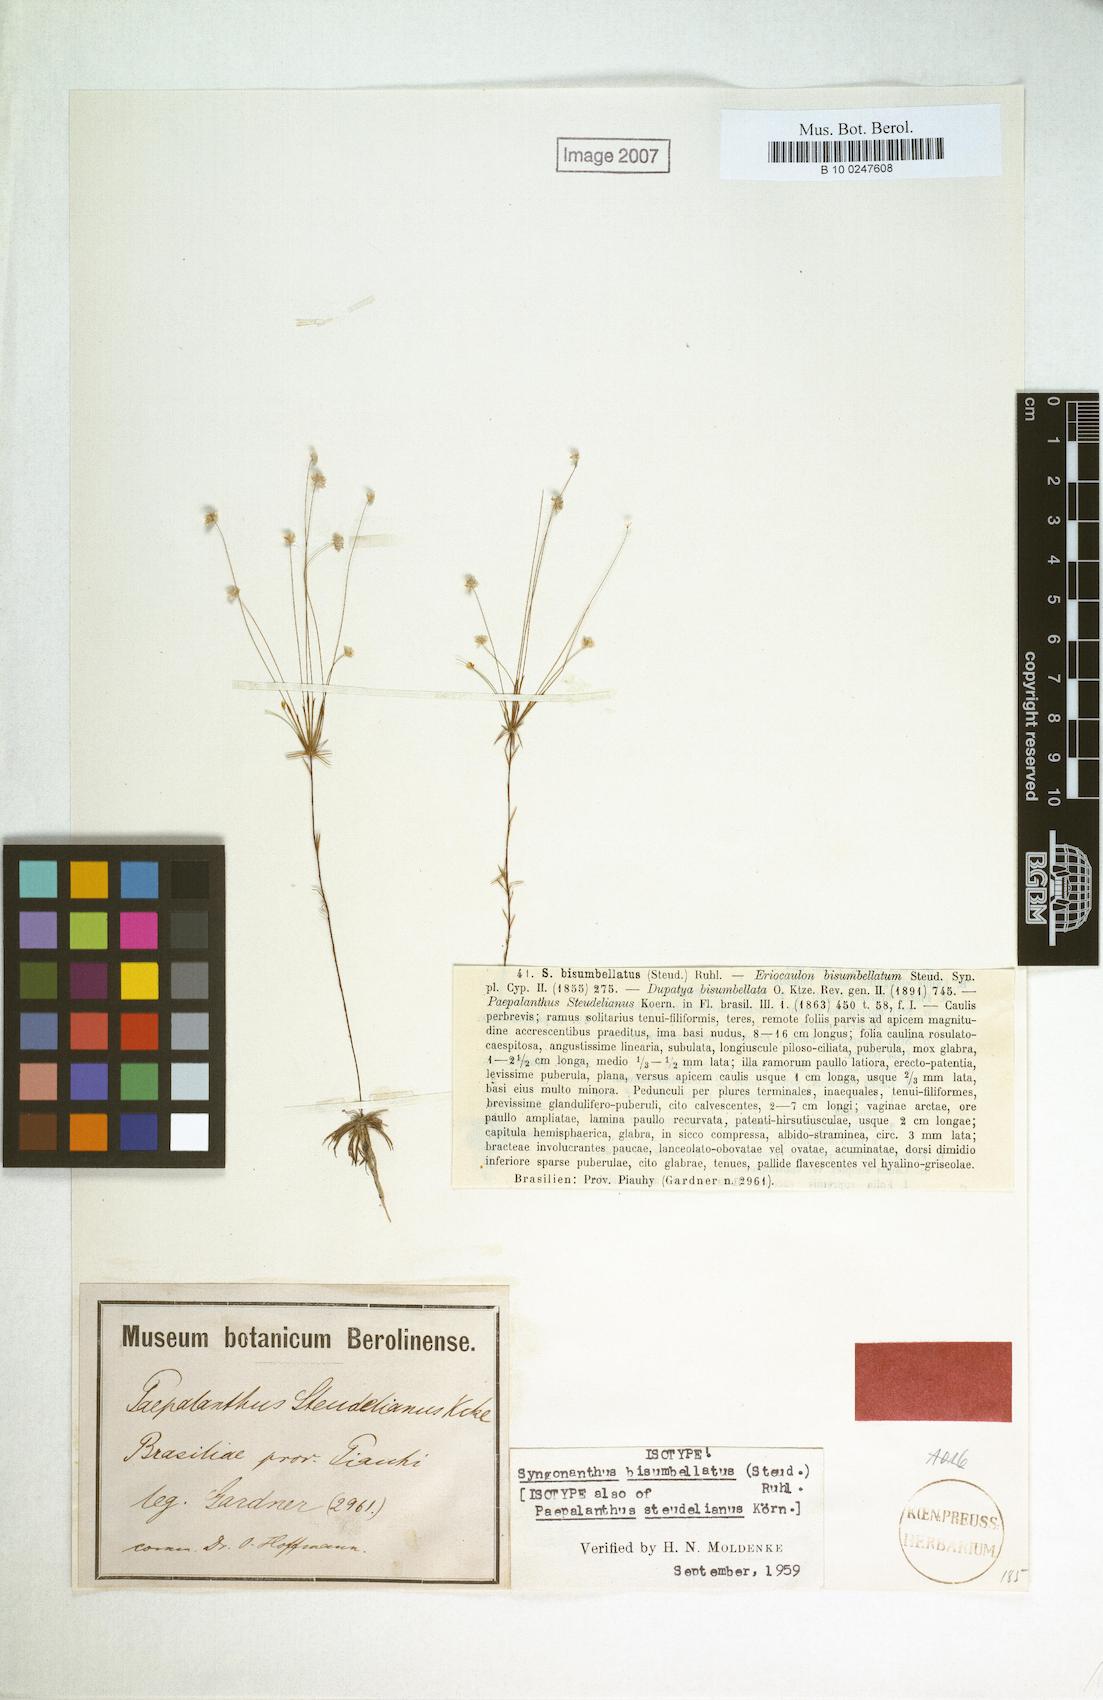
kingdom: Plantae
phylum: Tracheophyta
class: Liliopsida
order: Poales
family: Eriocaulaceae
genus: Syngonanthus
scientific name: Syngonanthus bisumbellatus
